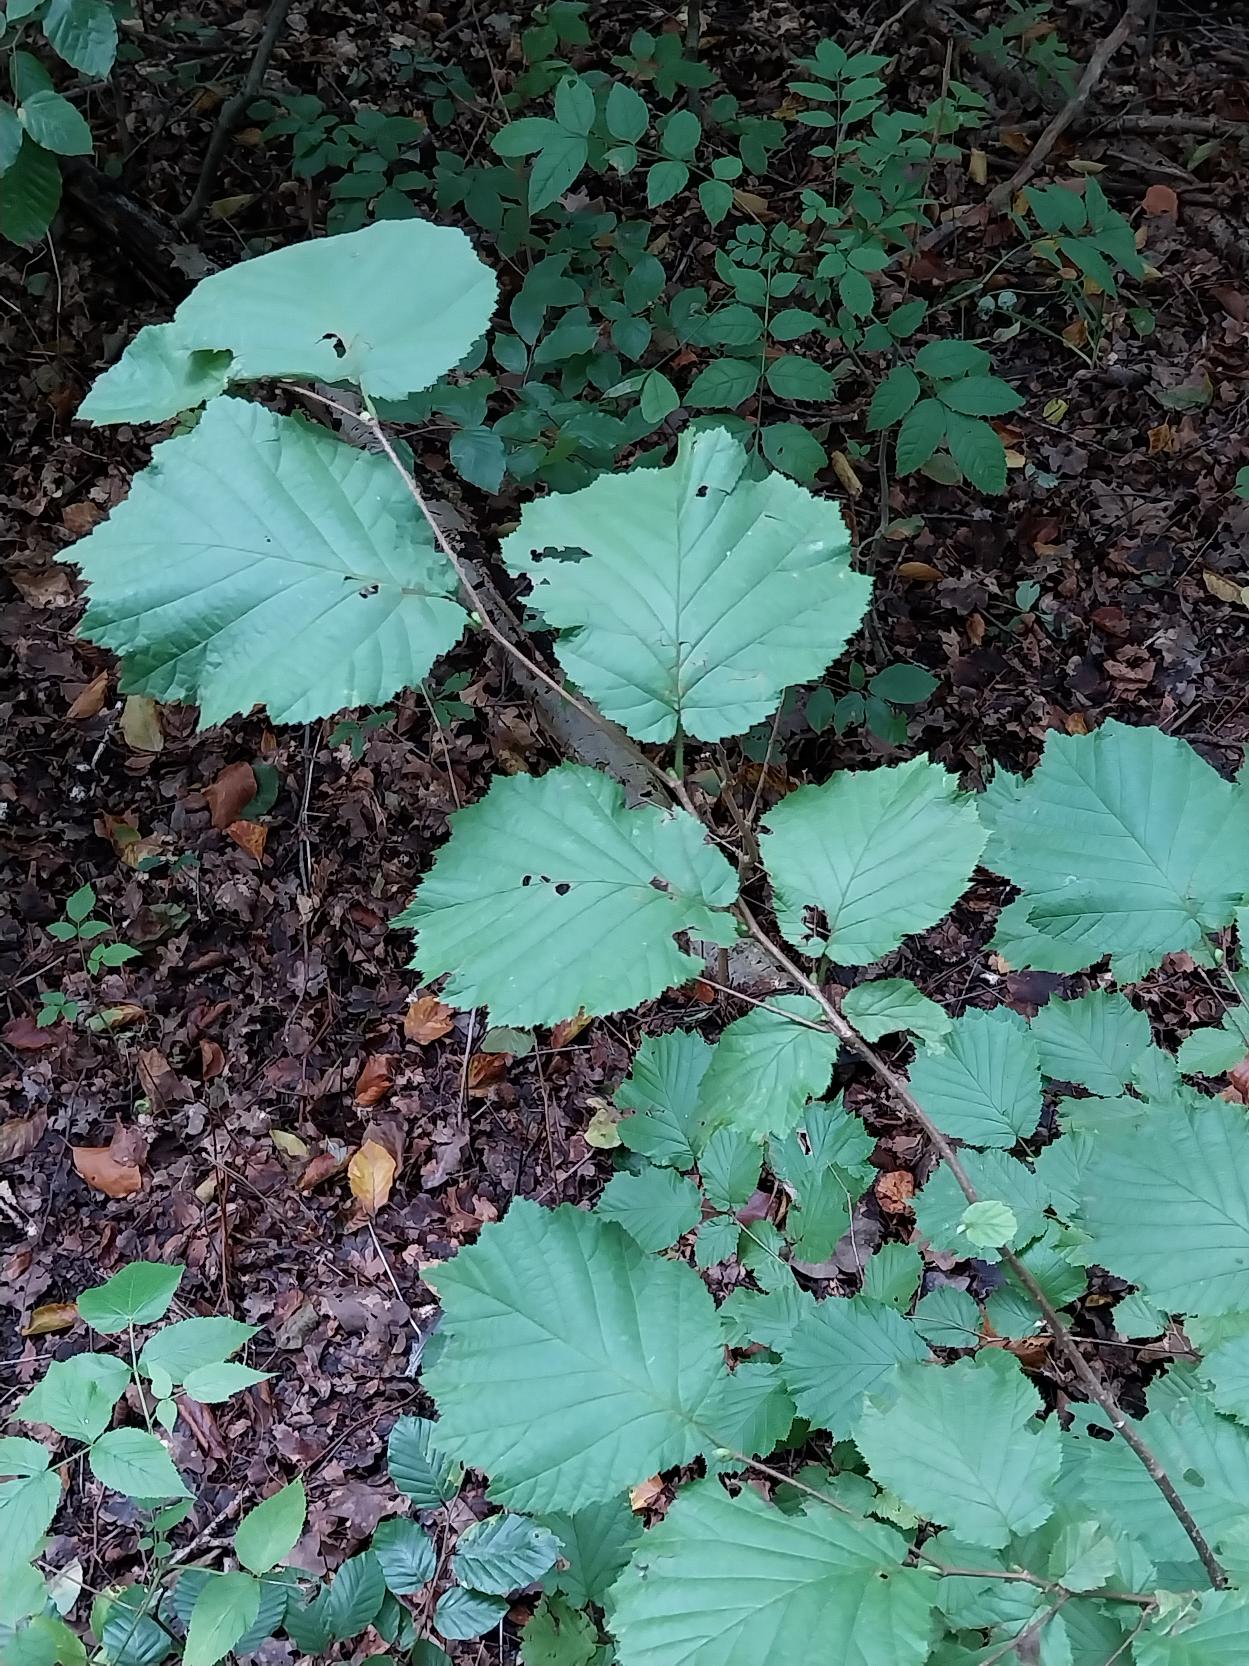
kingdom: Plantae
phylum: Tracheophyta
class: Magnoliopsida
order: Fagales
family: Betulaceae
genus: Corylus
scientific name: Corylus avellana
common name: Hassel
